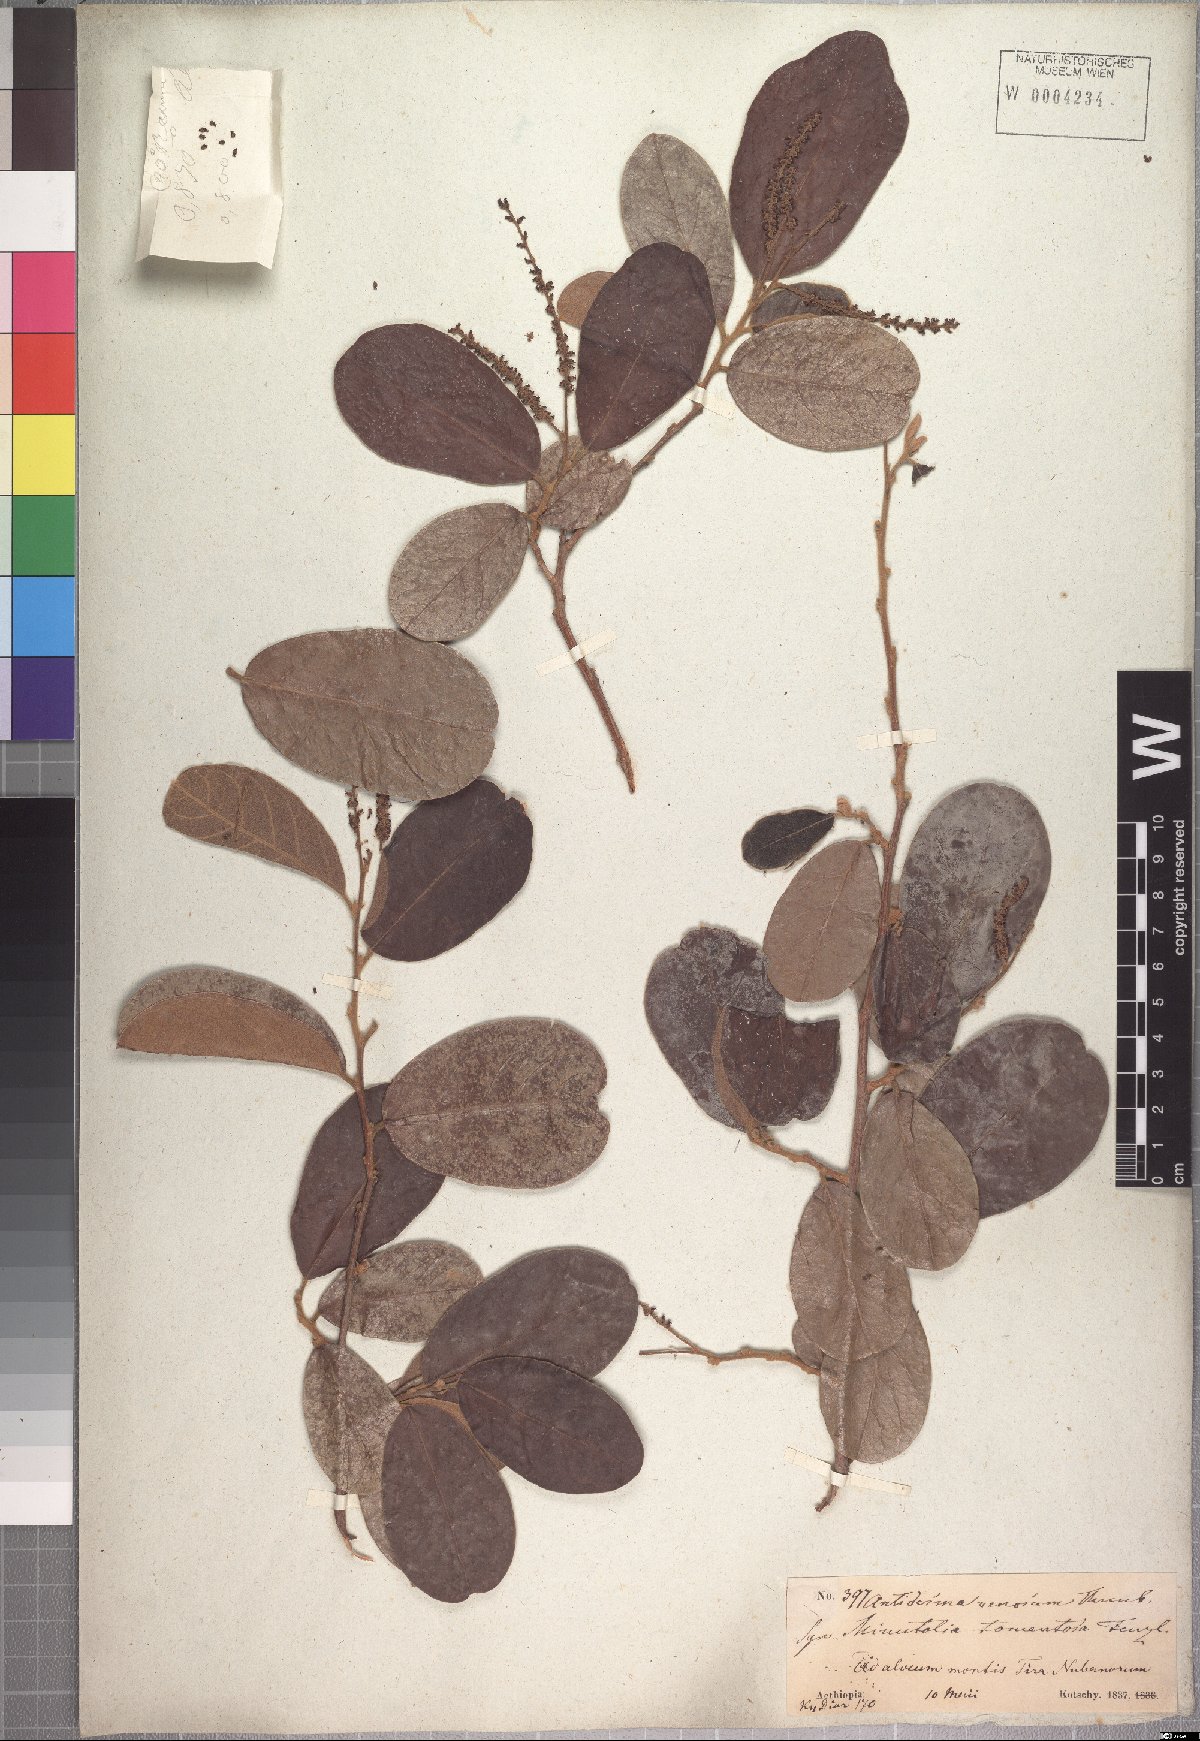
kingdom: Plantae
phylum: Tracheophyta
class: Magnoliopsida
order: Malpighiales
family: Phyllanthaceae
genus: Antidesma
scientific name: Antidesma venosum
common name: Tassel-berry
